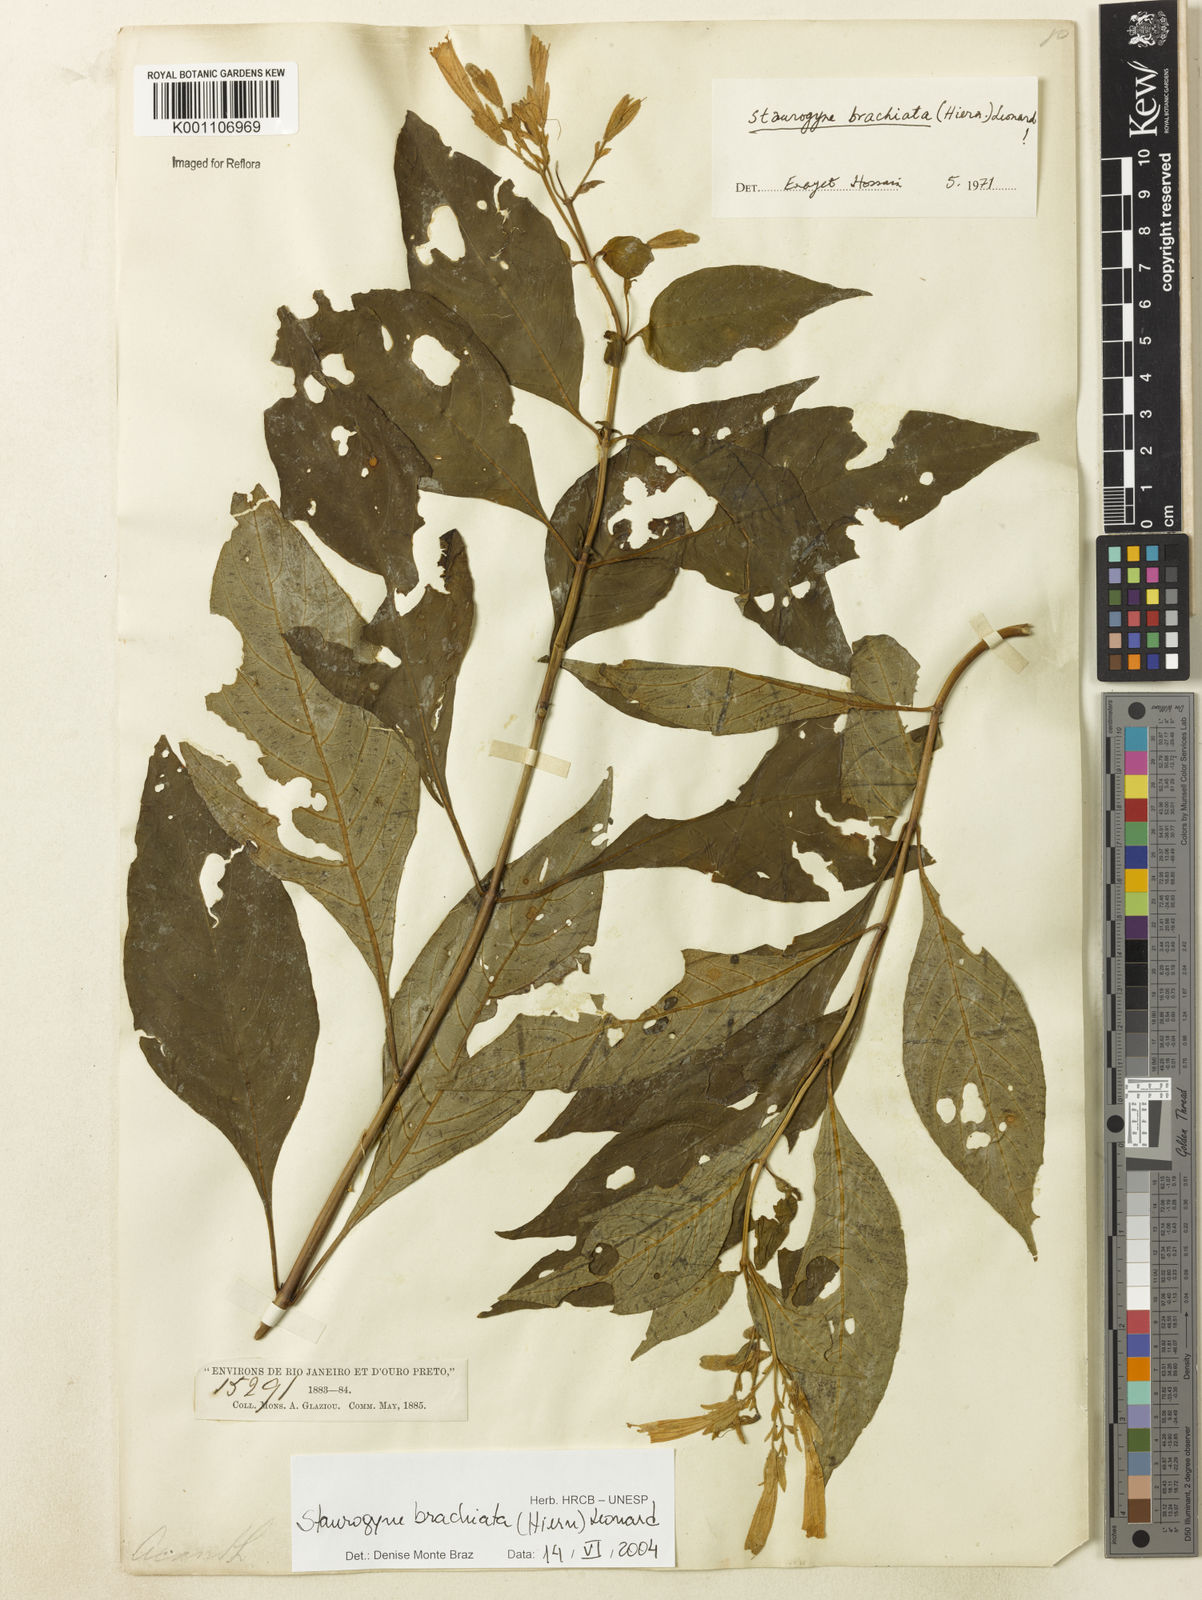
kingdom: Plantae
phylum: Tracheophyta
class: Magnoliopsida
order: Lamiales
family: Acanthaceae
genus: Staurogyne
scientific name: Staurogyne brachiata
